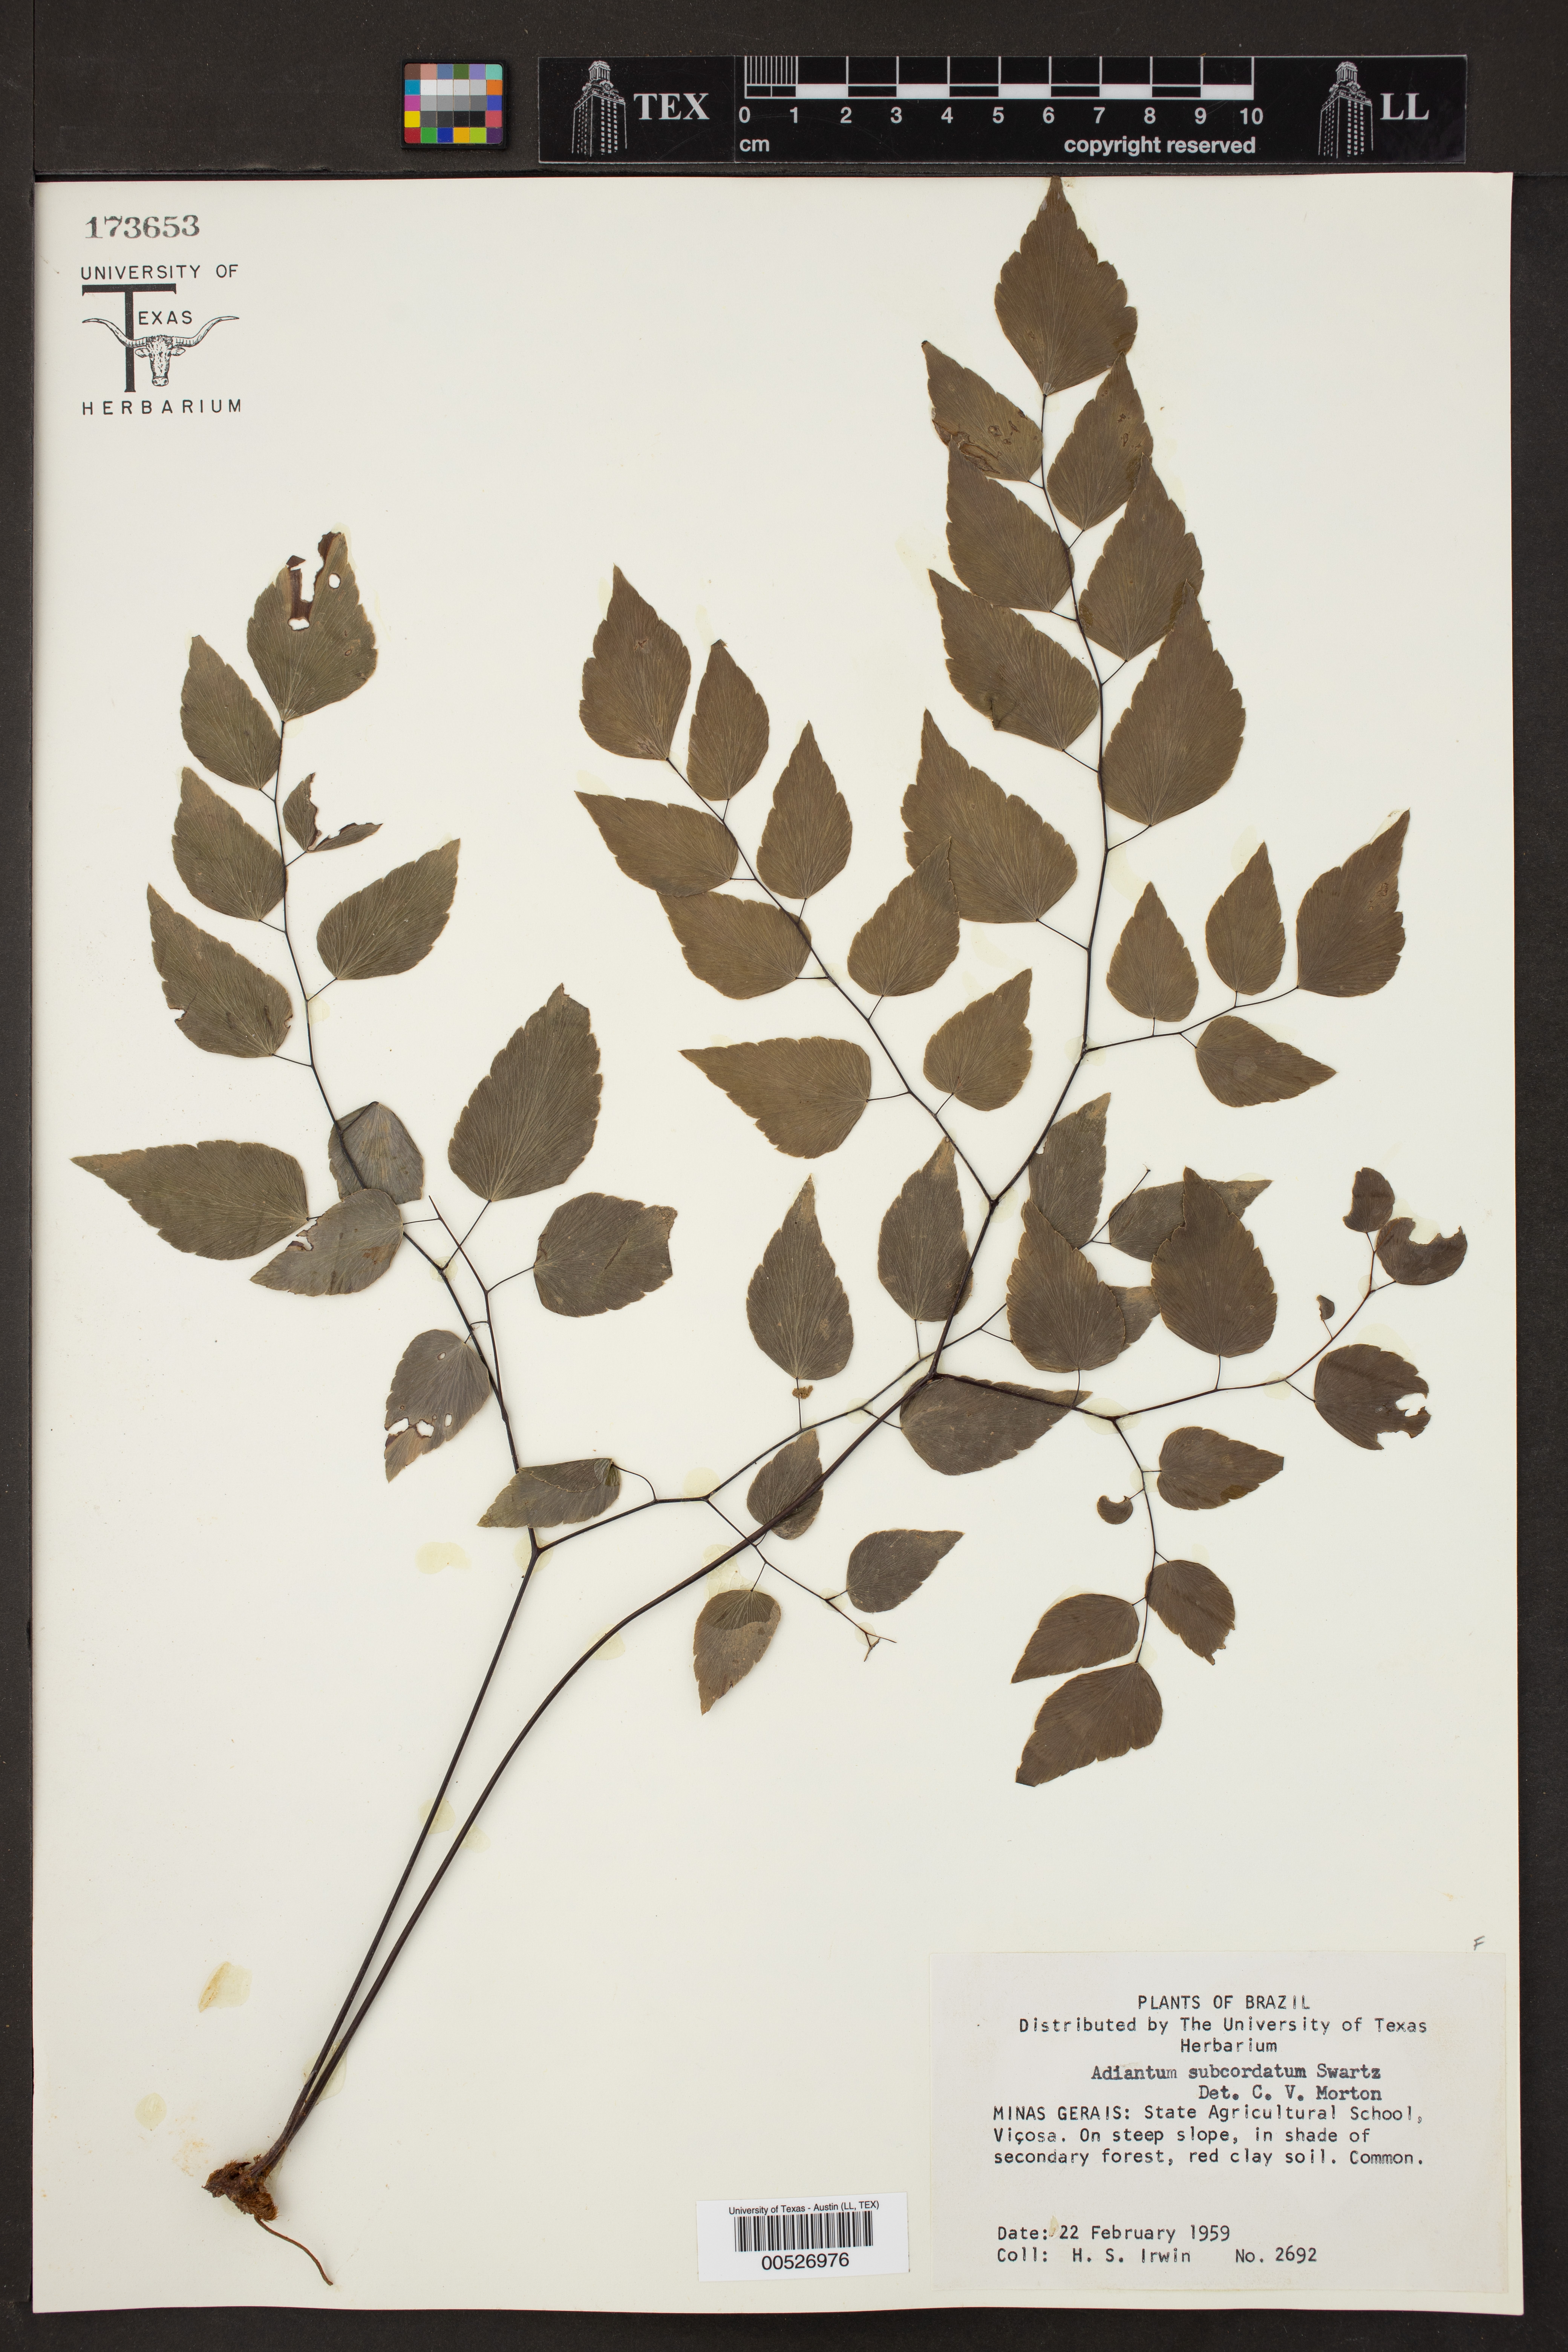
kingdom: Plantae
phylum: Tracheophyta
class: Polypodiopsida
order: Polypodiales
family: Pteridaceae
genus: Adiantum
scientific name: Adiantum subcordatum
